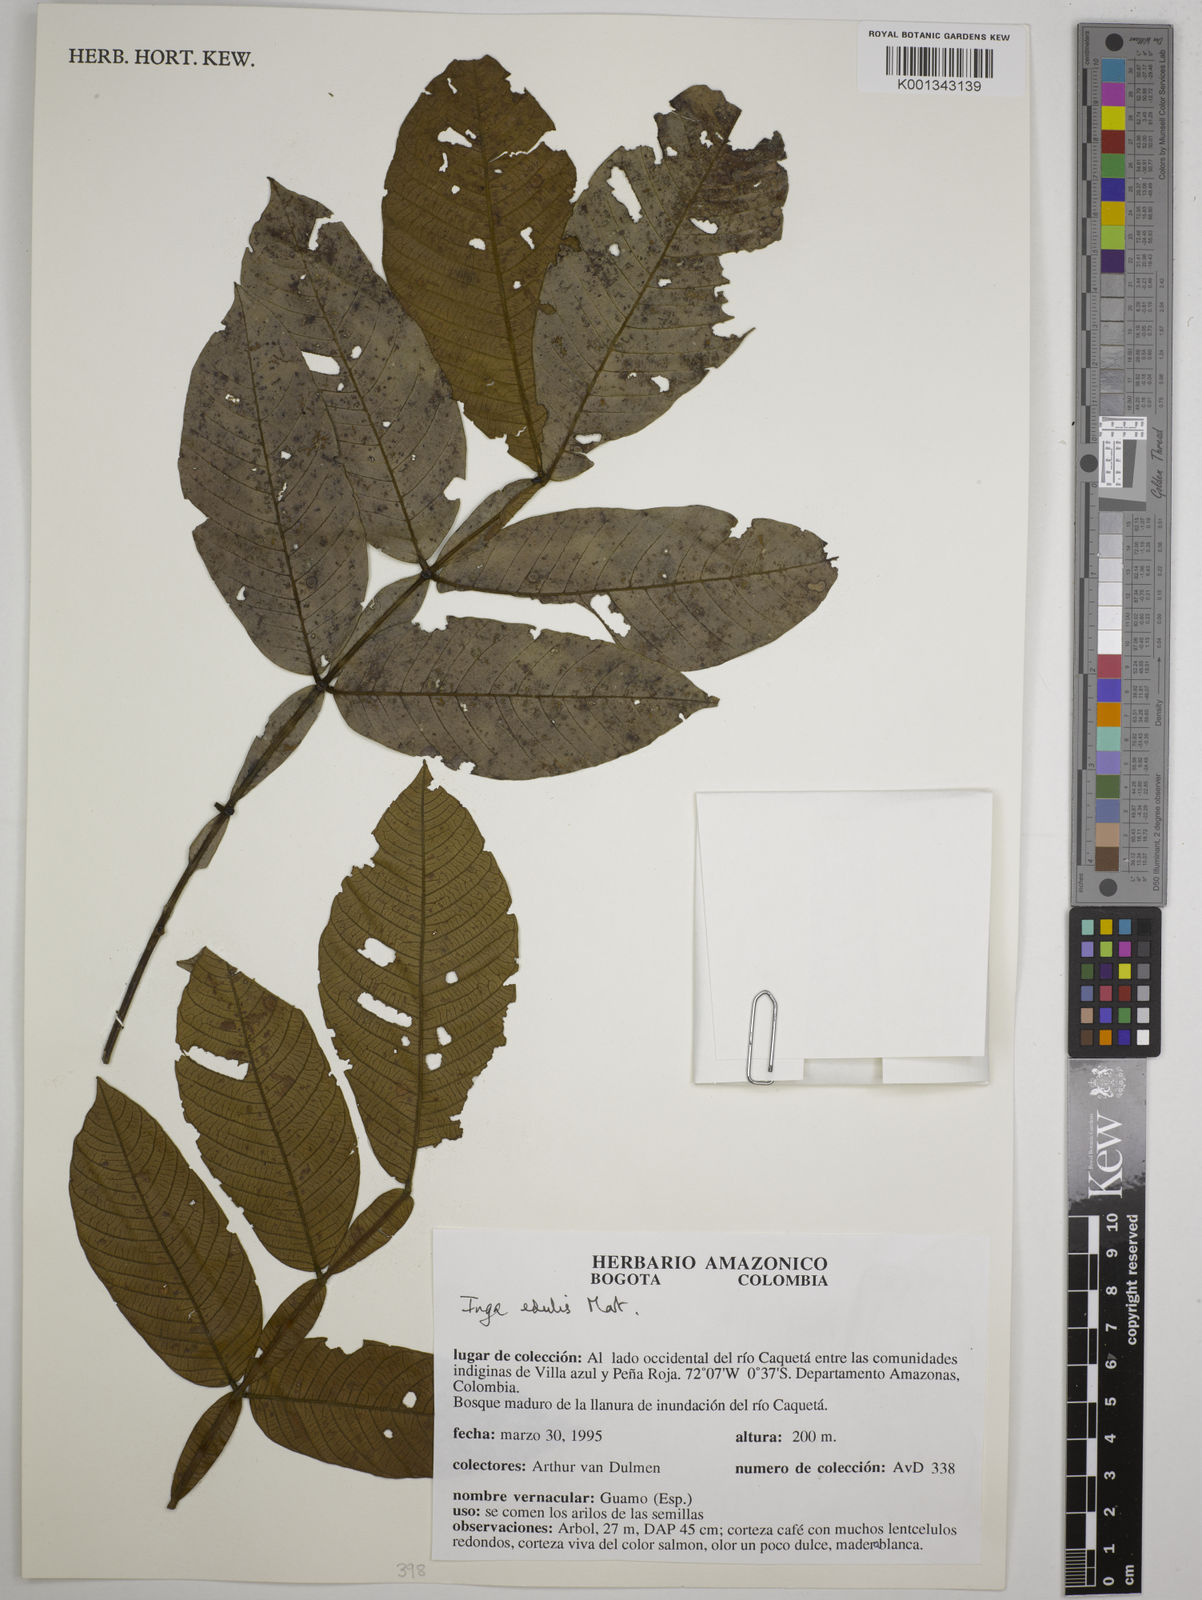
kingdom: Plantae
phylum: Tracheophyta
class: Magnoliopsida
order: Fabales
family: Fabaceae
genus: Inga
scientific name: Inga edulis
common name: Ice cream bean
